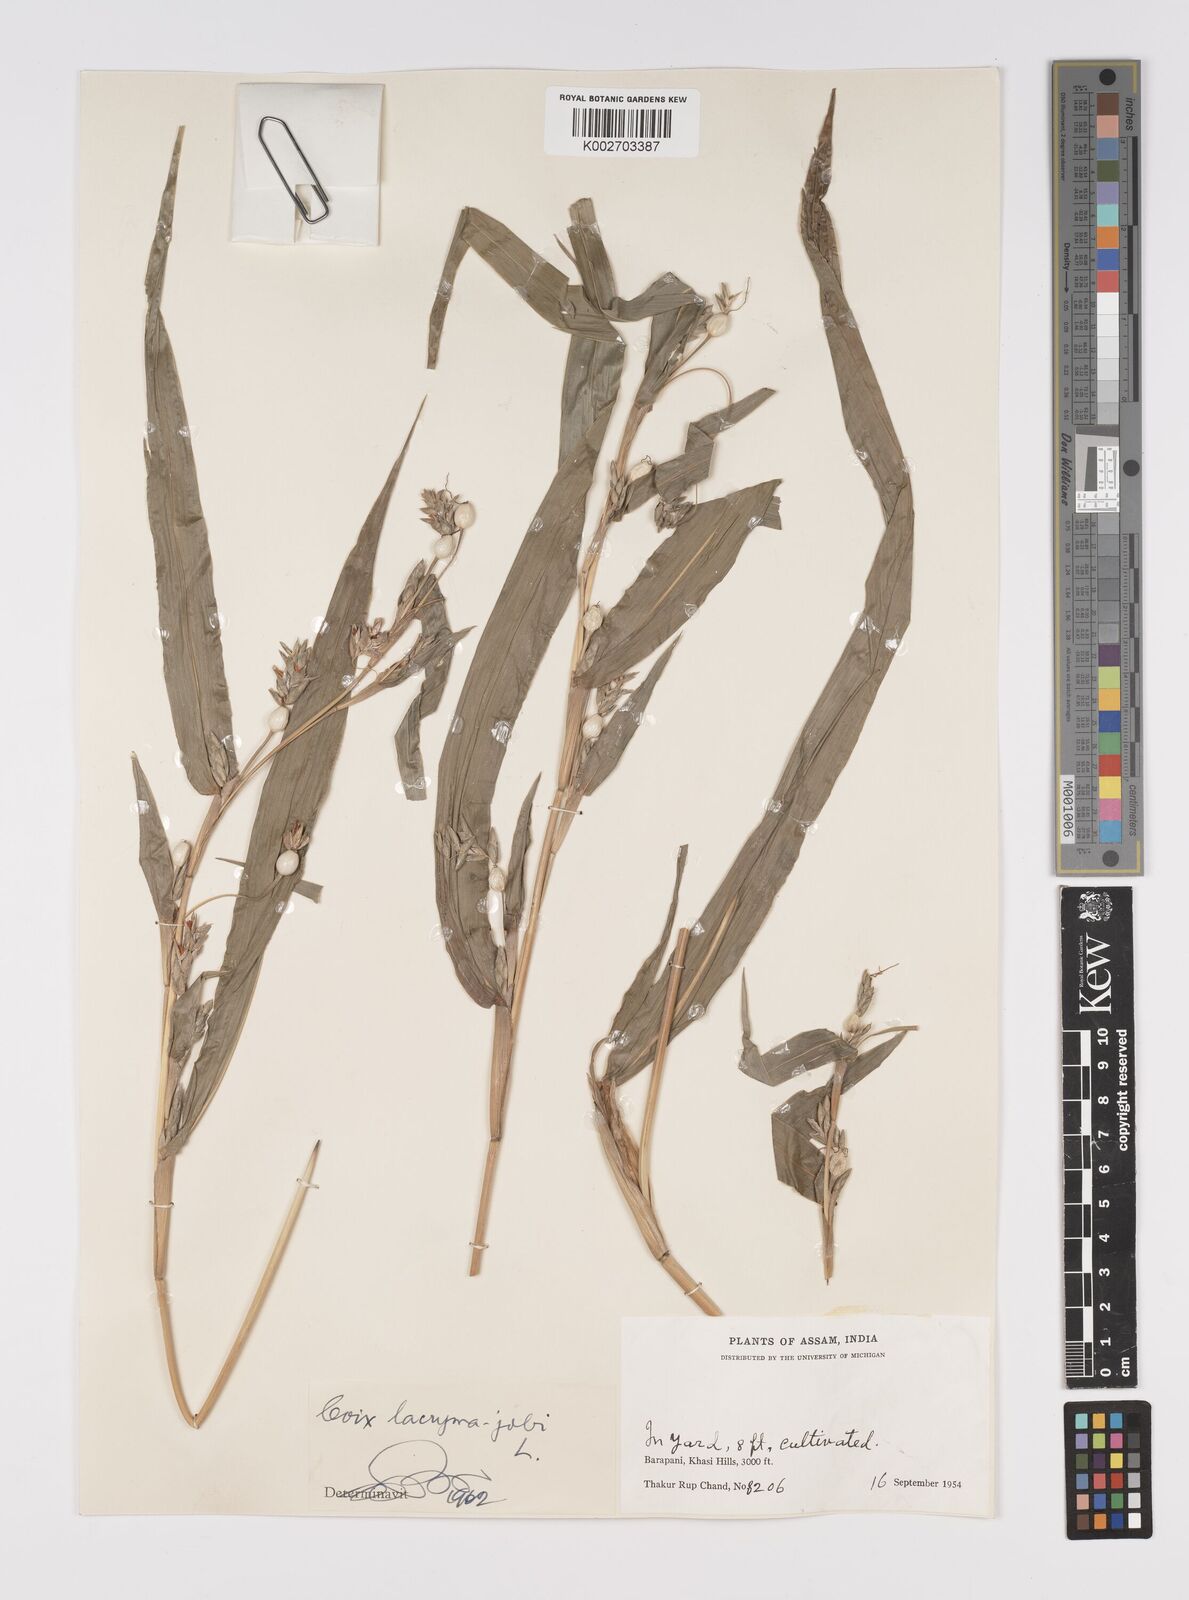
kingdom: Plantae
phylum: Tracheophyta
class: Liliopsida
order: Poales
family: Poaceae
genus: Coix
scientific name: Coix lacryma-jobi
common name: Job's tears
